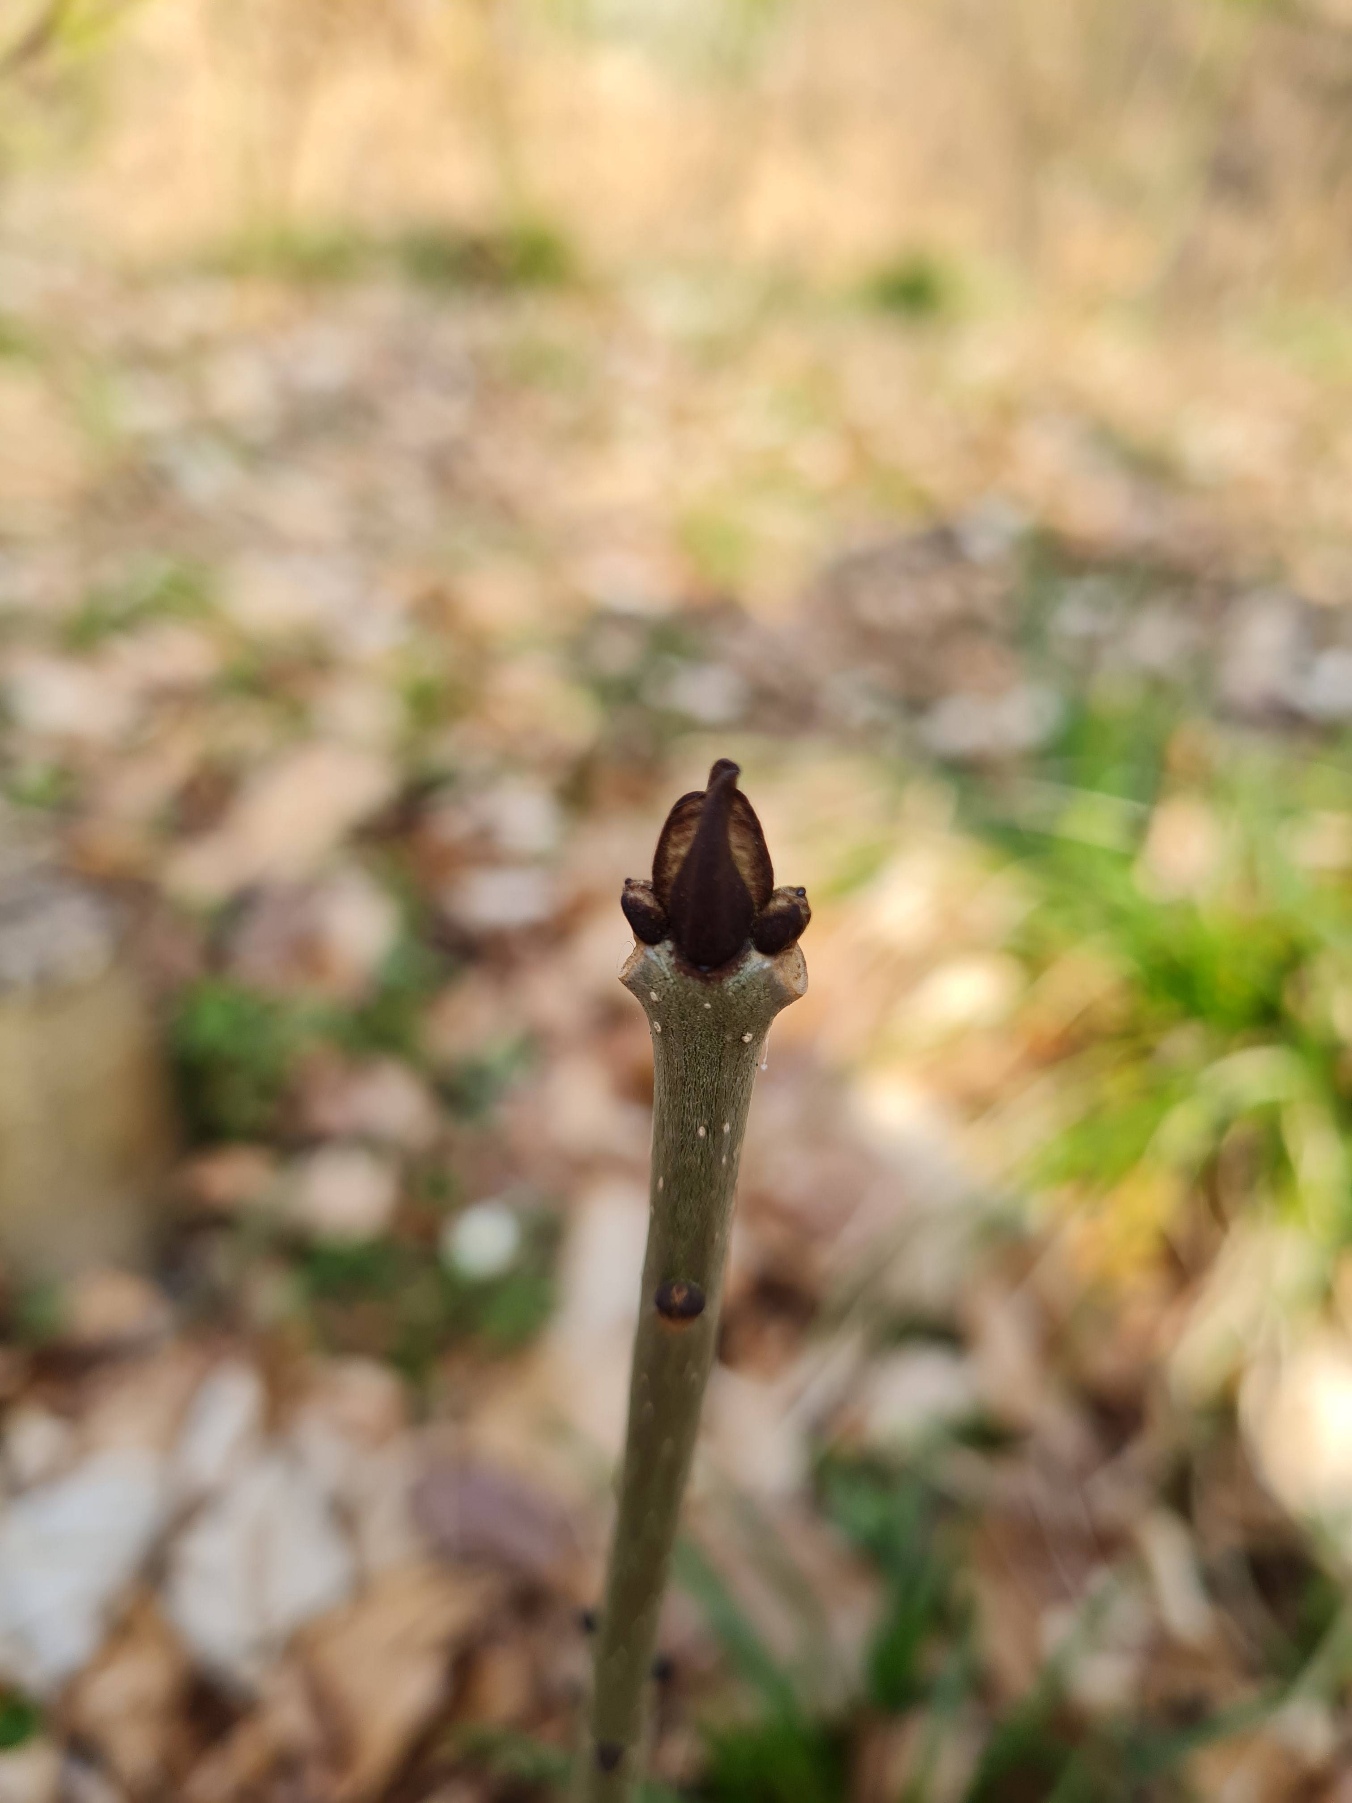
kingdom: Plantae
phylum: Tracheophyta
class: Magnoliopsida
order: Lamiales
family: Oleaceae
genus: Fraxinus
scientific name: Fraxinus excelsior
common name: Ask
